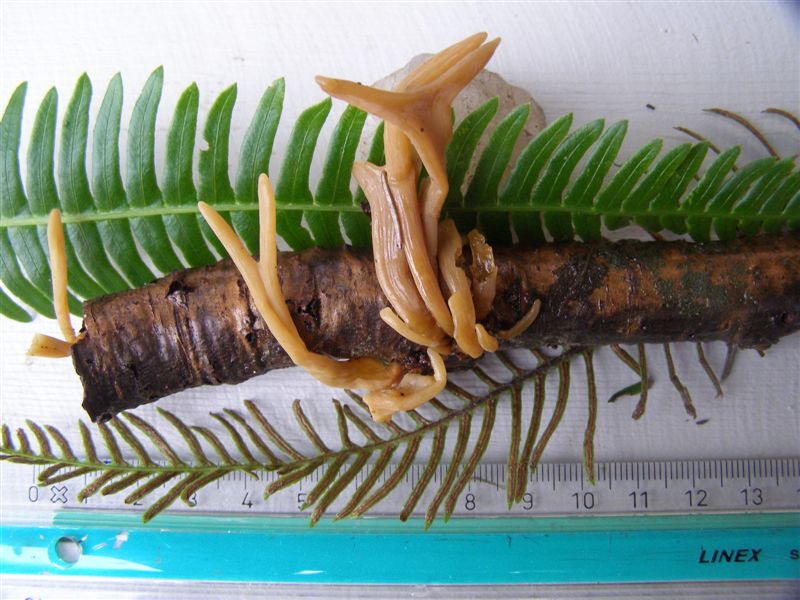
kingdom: Fungi
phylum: Basidiomycota
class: Agaricomycetes
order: Agaricales
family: Typhulaceae
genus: Typhula
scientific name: Typhula fistulosa
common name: pibet rørkølle
